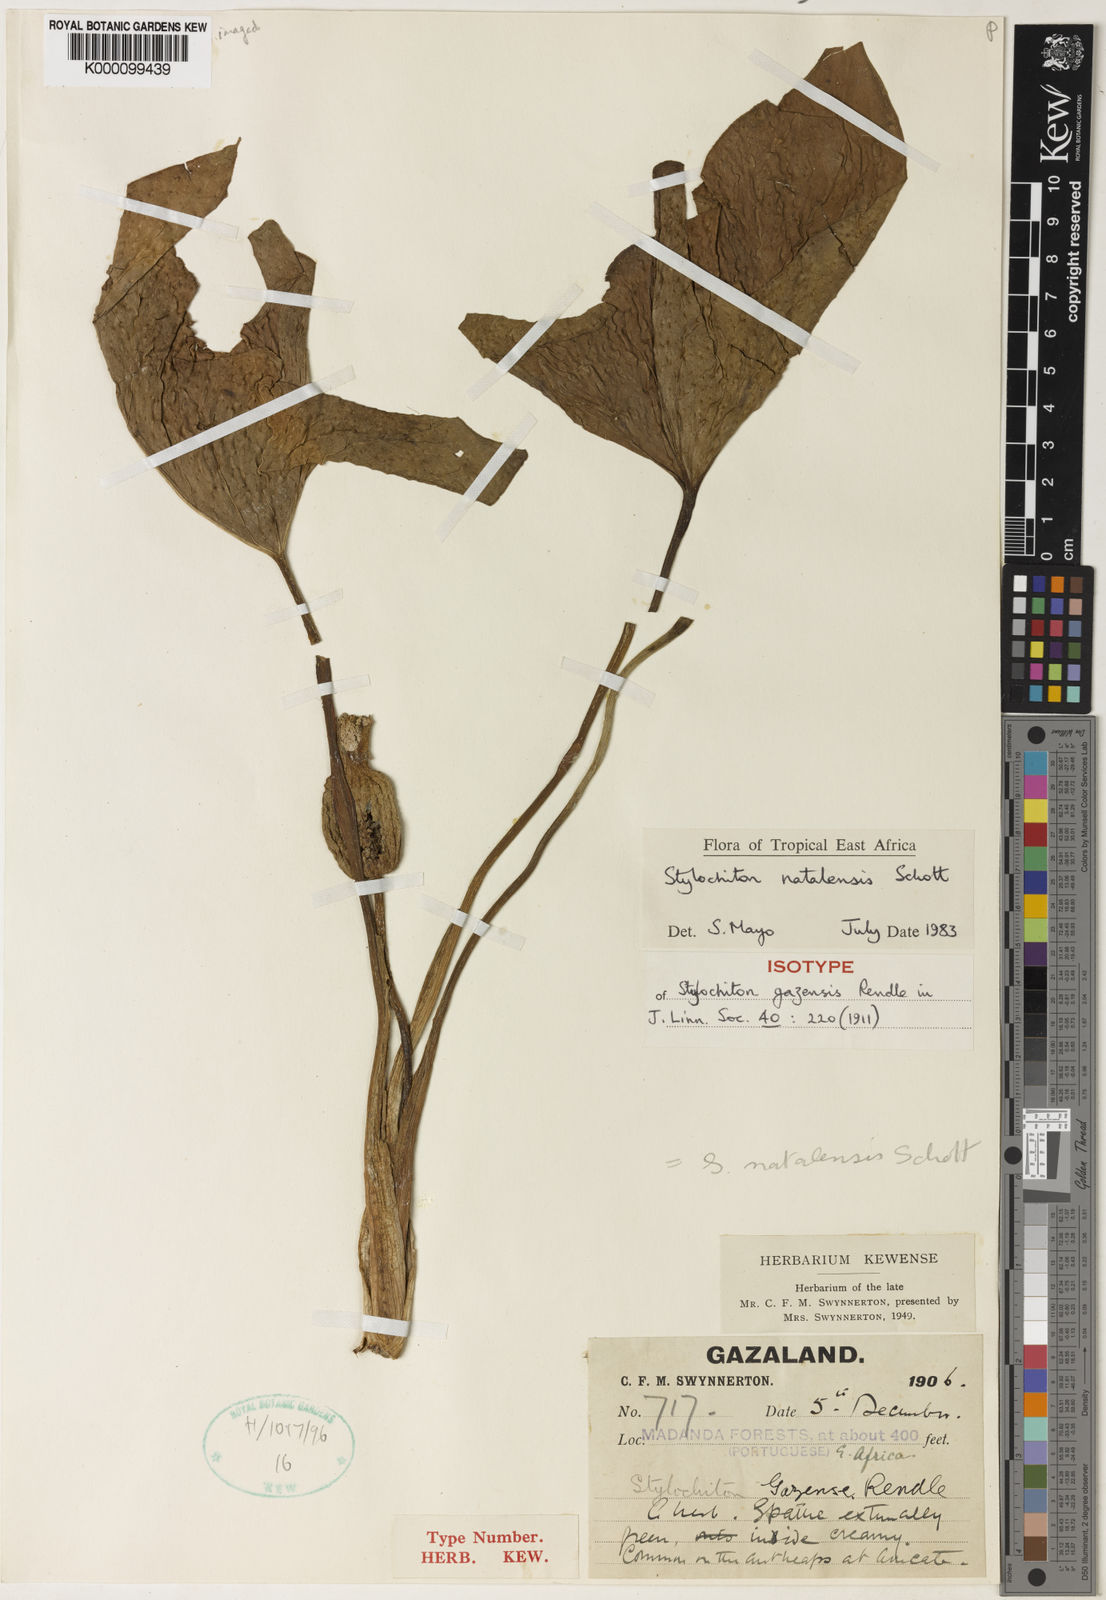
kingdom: Plantae
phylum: Tracheophyta
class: Liliopsida
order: Alismatales
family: Araceae
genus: Stylochaeton
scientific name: Stylochaeton
